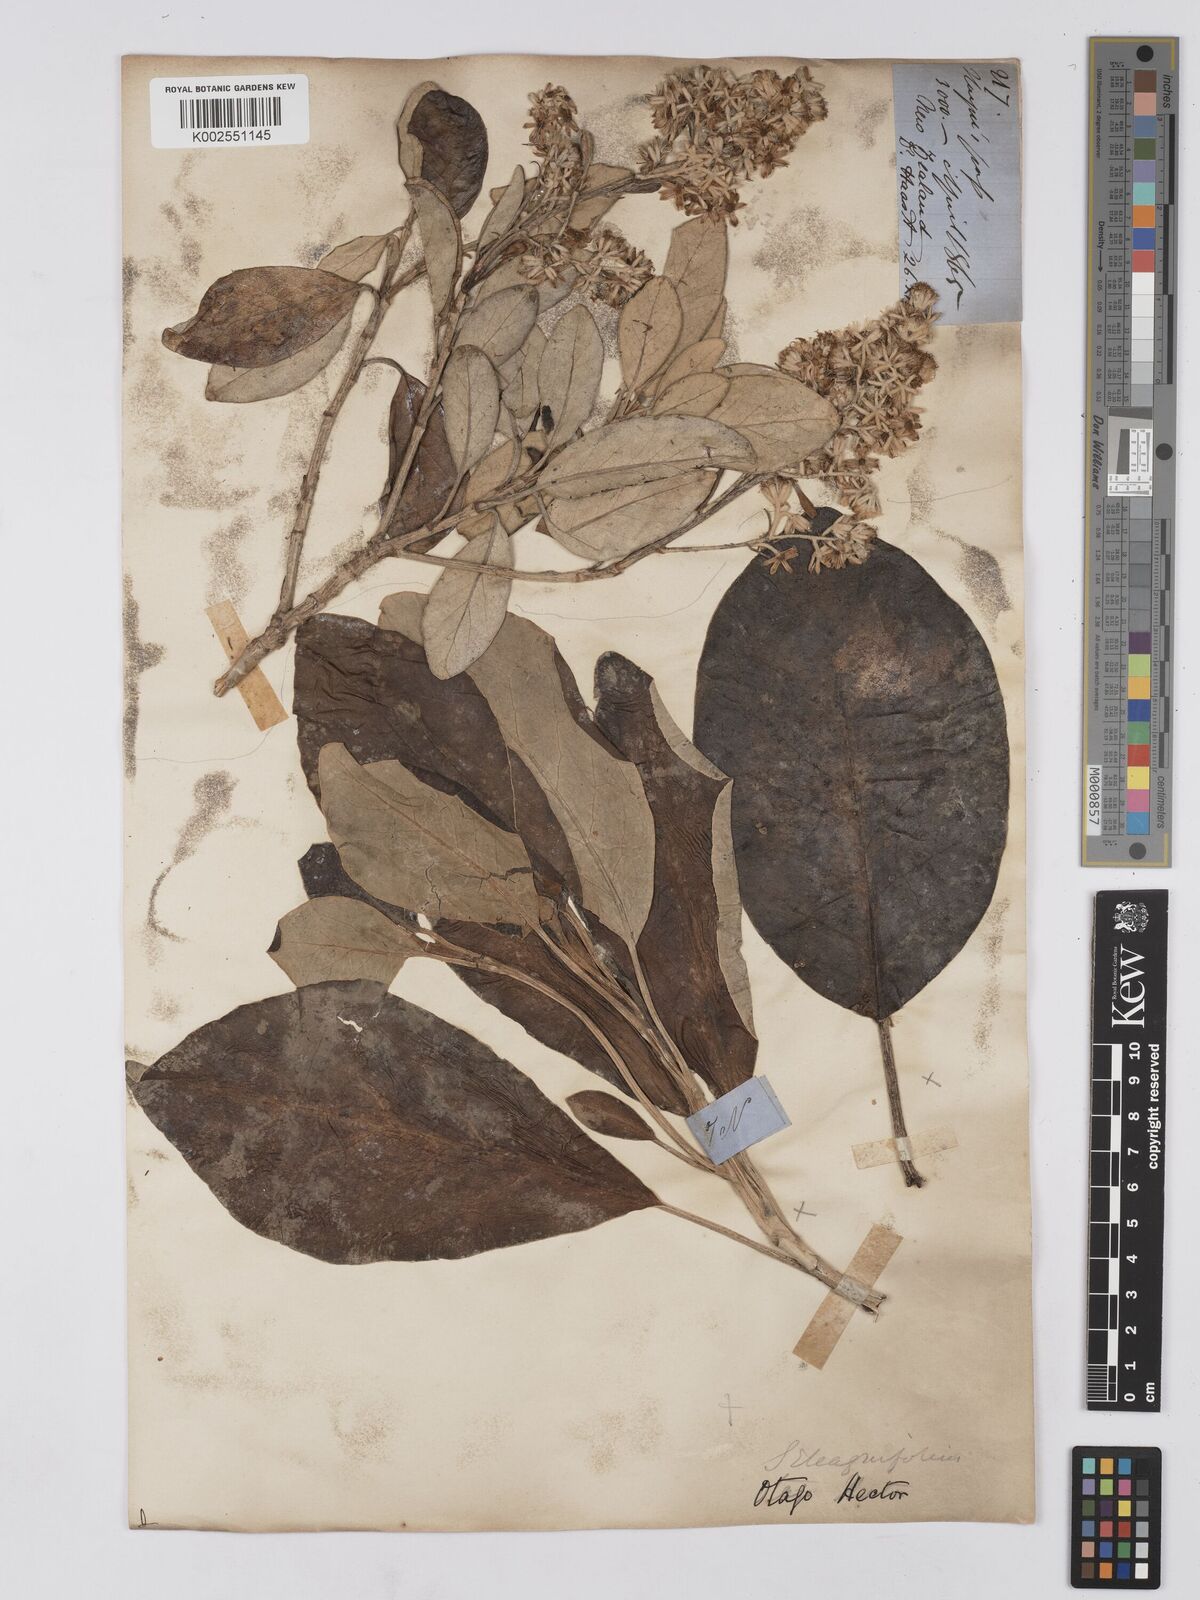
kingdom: Plantae
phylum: Tracheophyta
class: Magnoliopsida
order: Asterales
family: Asteraceae
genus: Brachyglottis
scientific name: Brachyglottis buchananii
